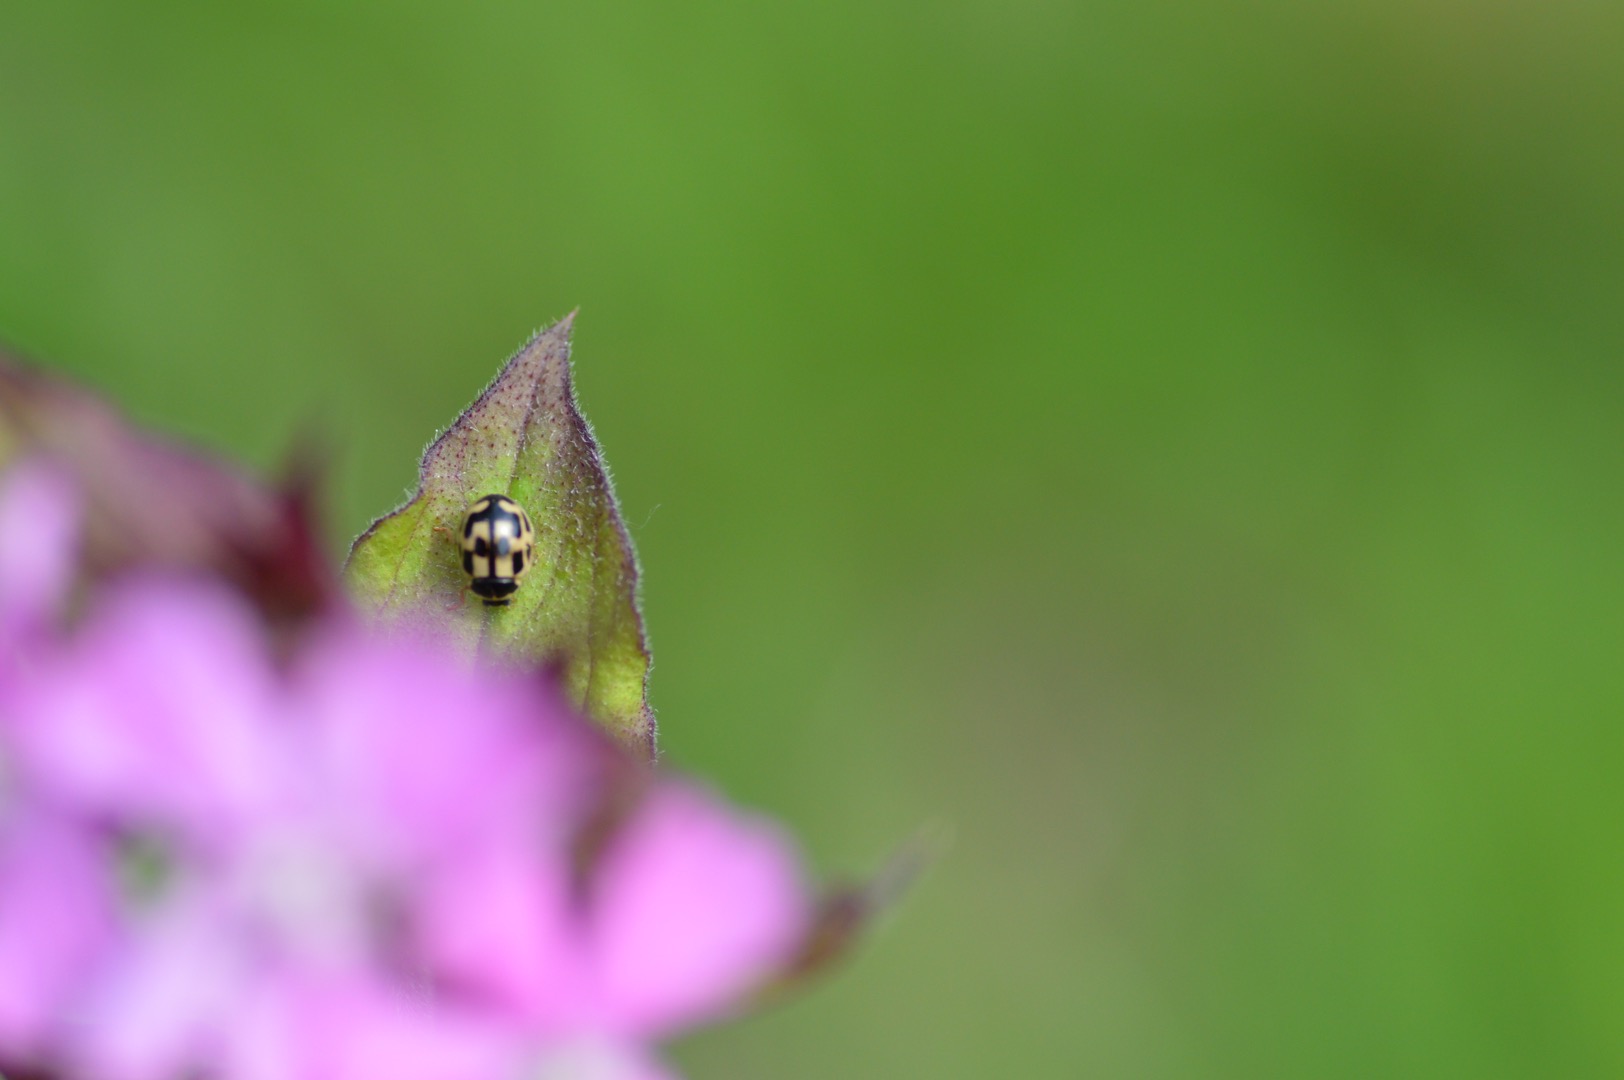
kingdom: Animalia
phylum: Arthropoda
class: Insecta
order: Coleoptera
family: Coccinellidae
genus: Propylaea
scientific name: Propylaea quatuordecimpunctata
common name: Skakbræt
